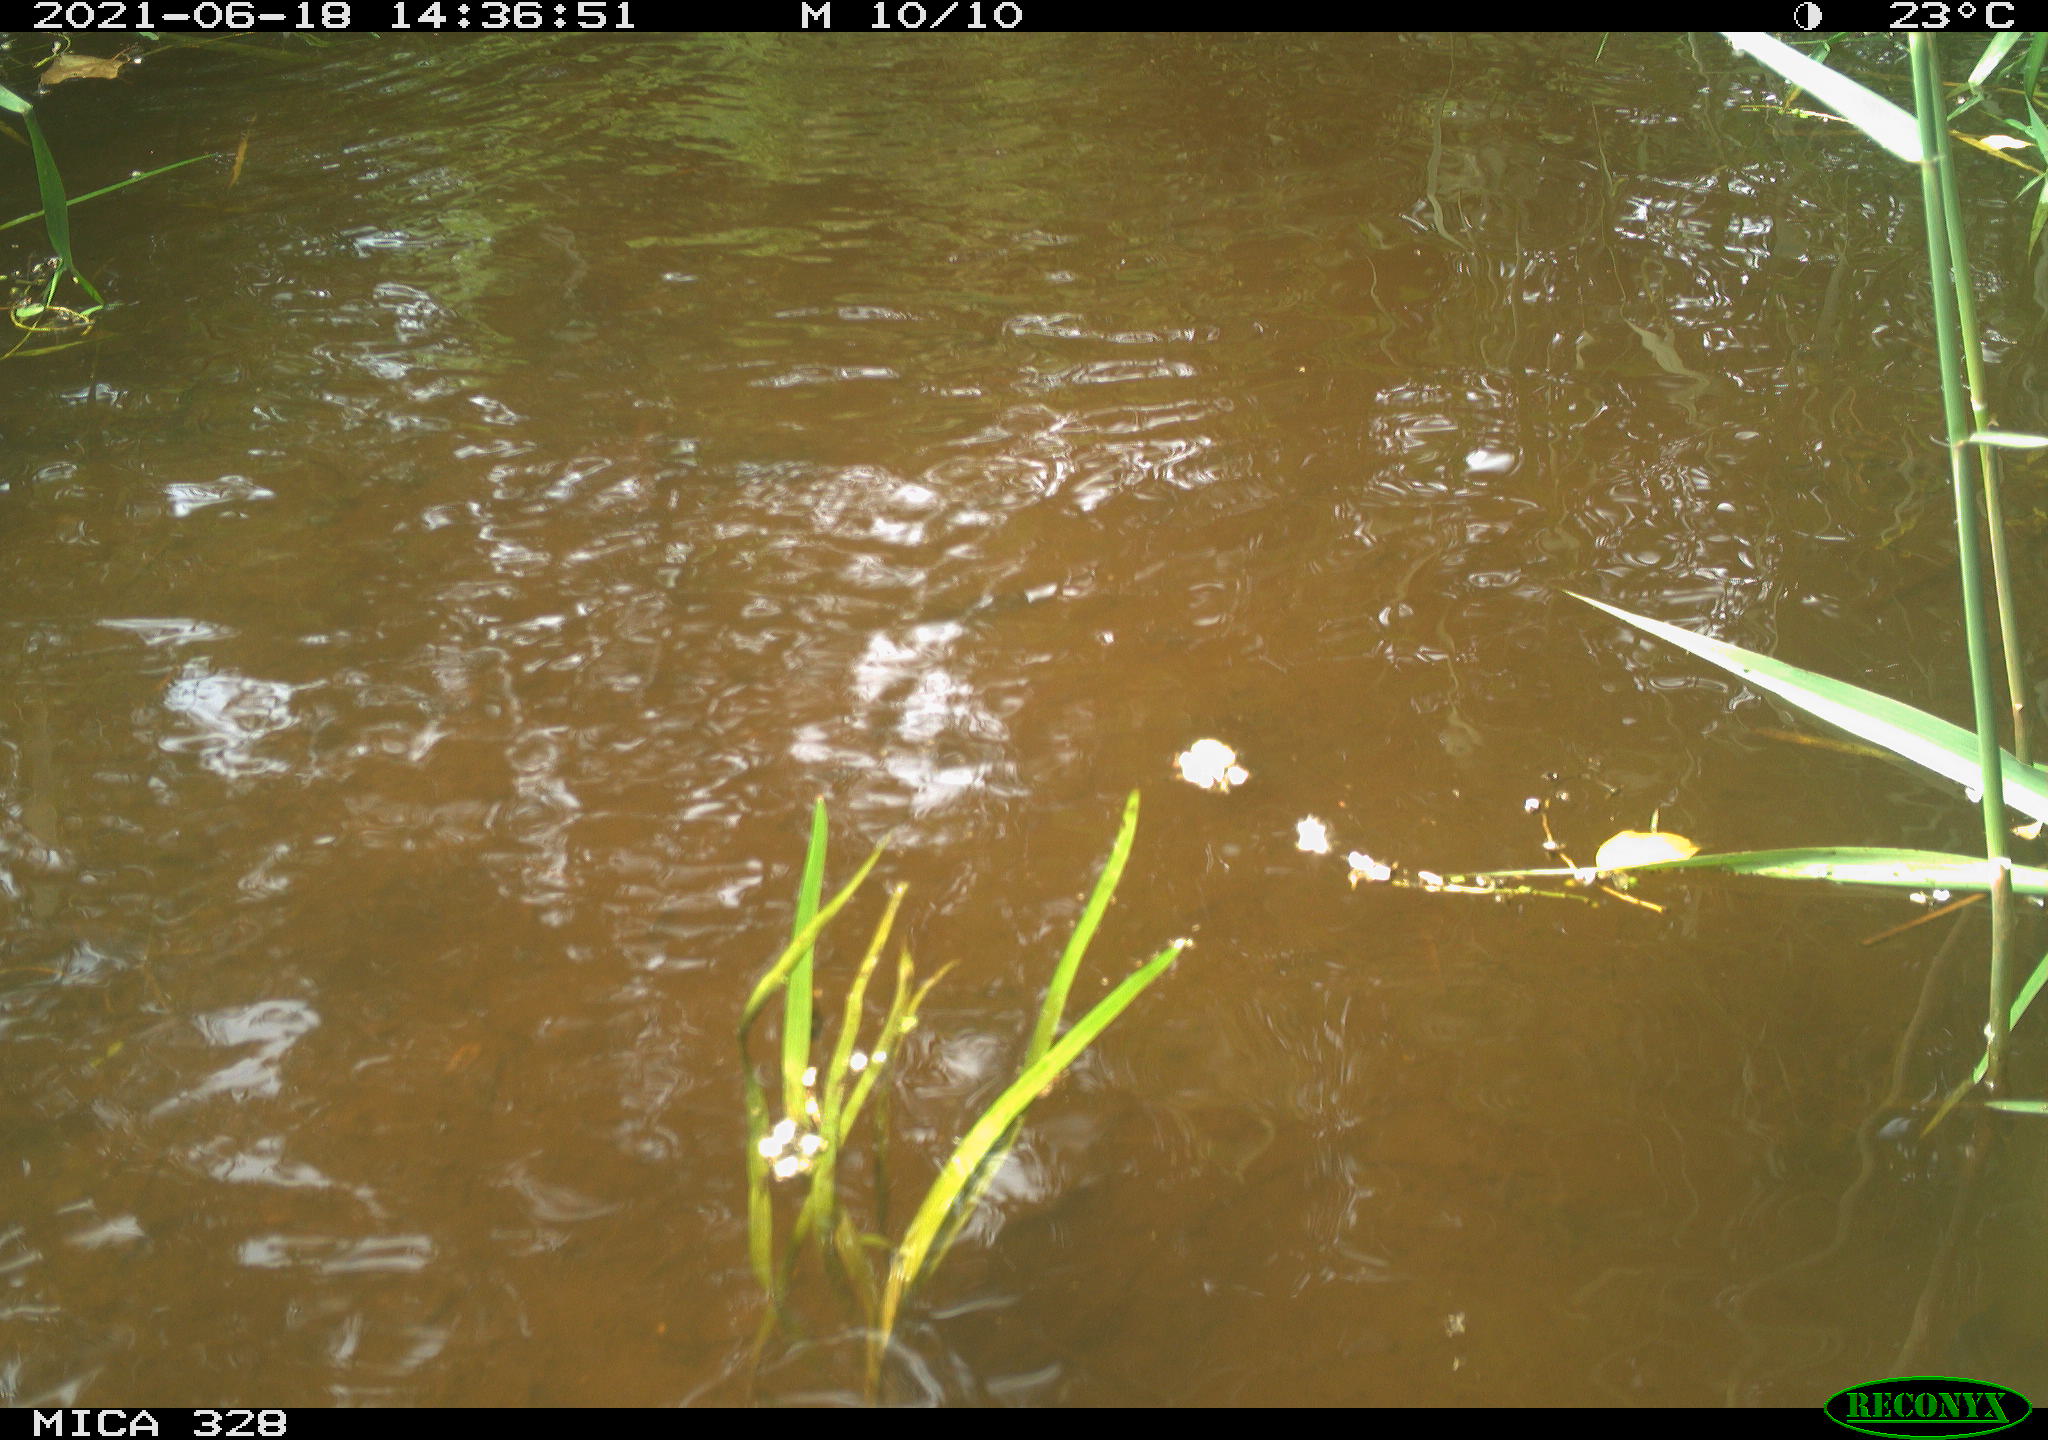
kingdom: Animalia
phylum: Chordata
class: Mammalia
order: Rodentia
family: Cricetidae
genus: Ondatra
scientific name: Ondatra zibethicus
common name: Muskrat
